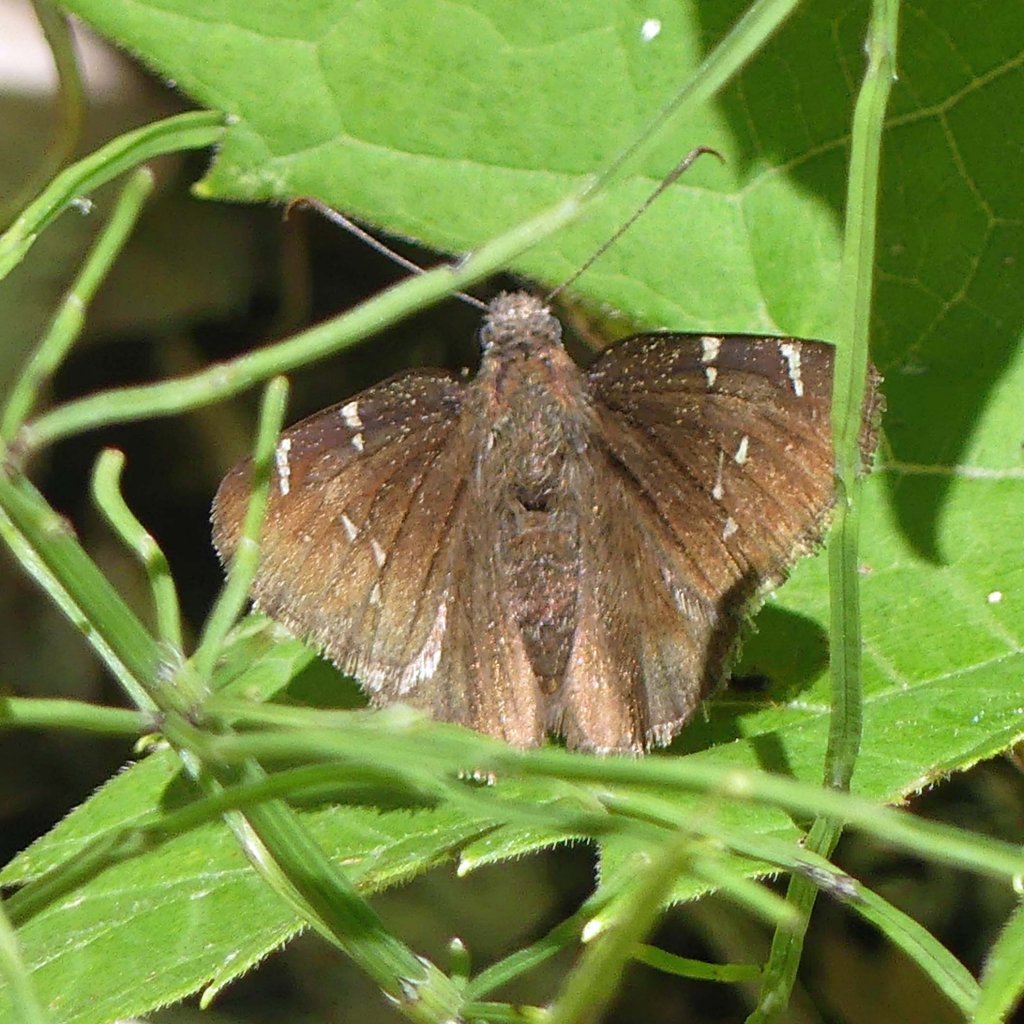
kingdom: Animalia
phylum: Arthropoda
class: Insecta
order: Lepidoptera
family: Hesperiidae
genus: Autochton
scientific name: Autochton
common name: Northern Cloudywing
